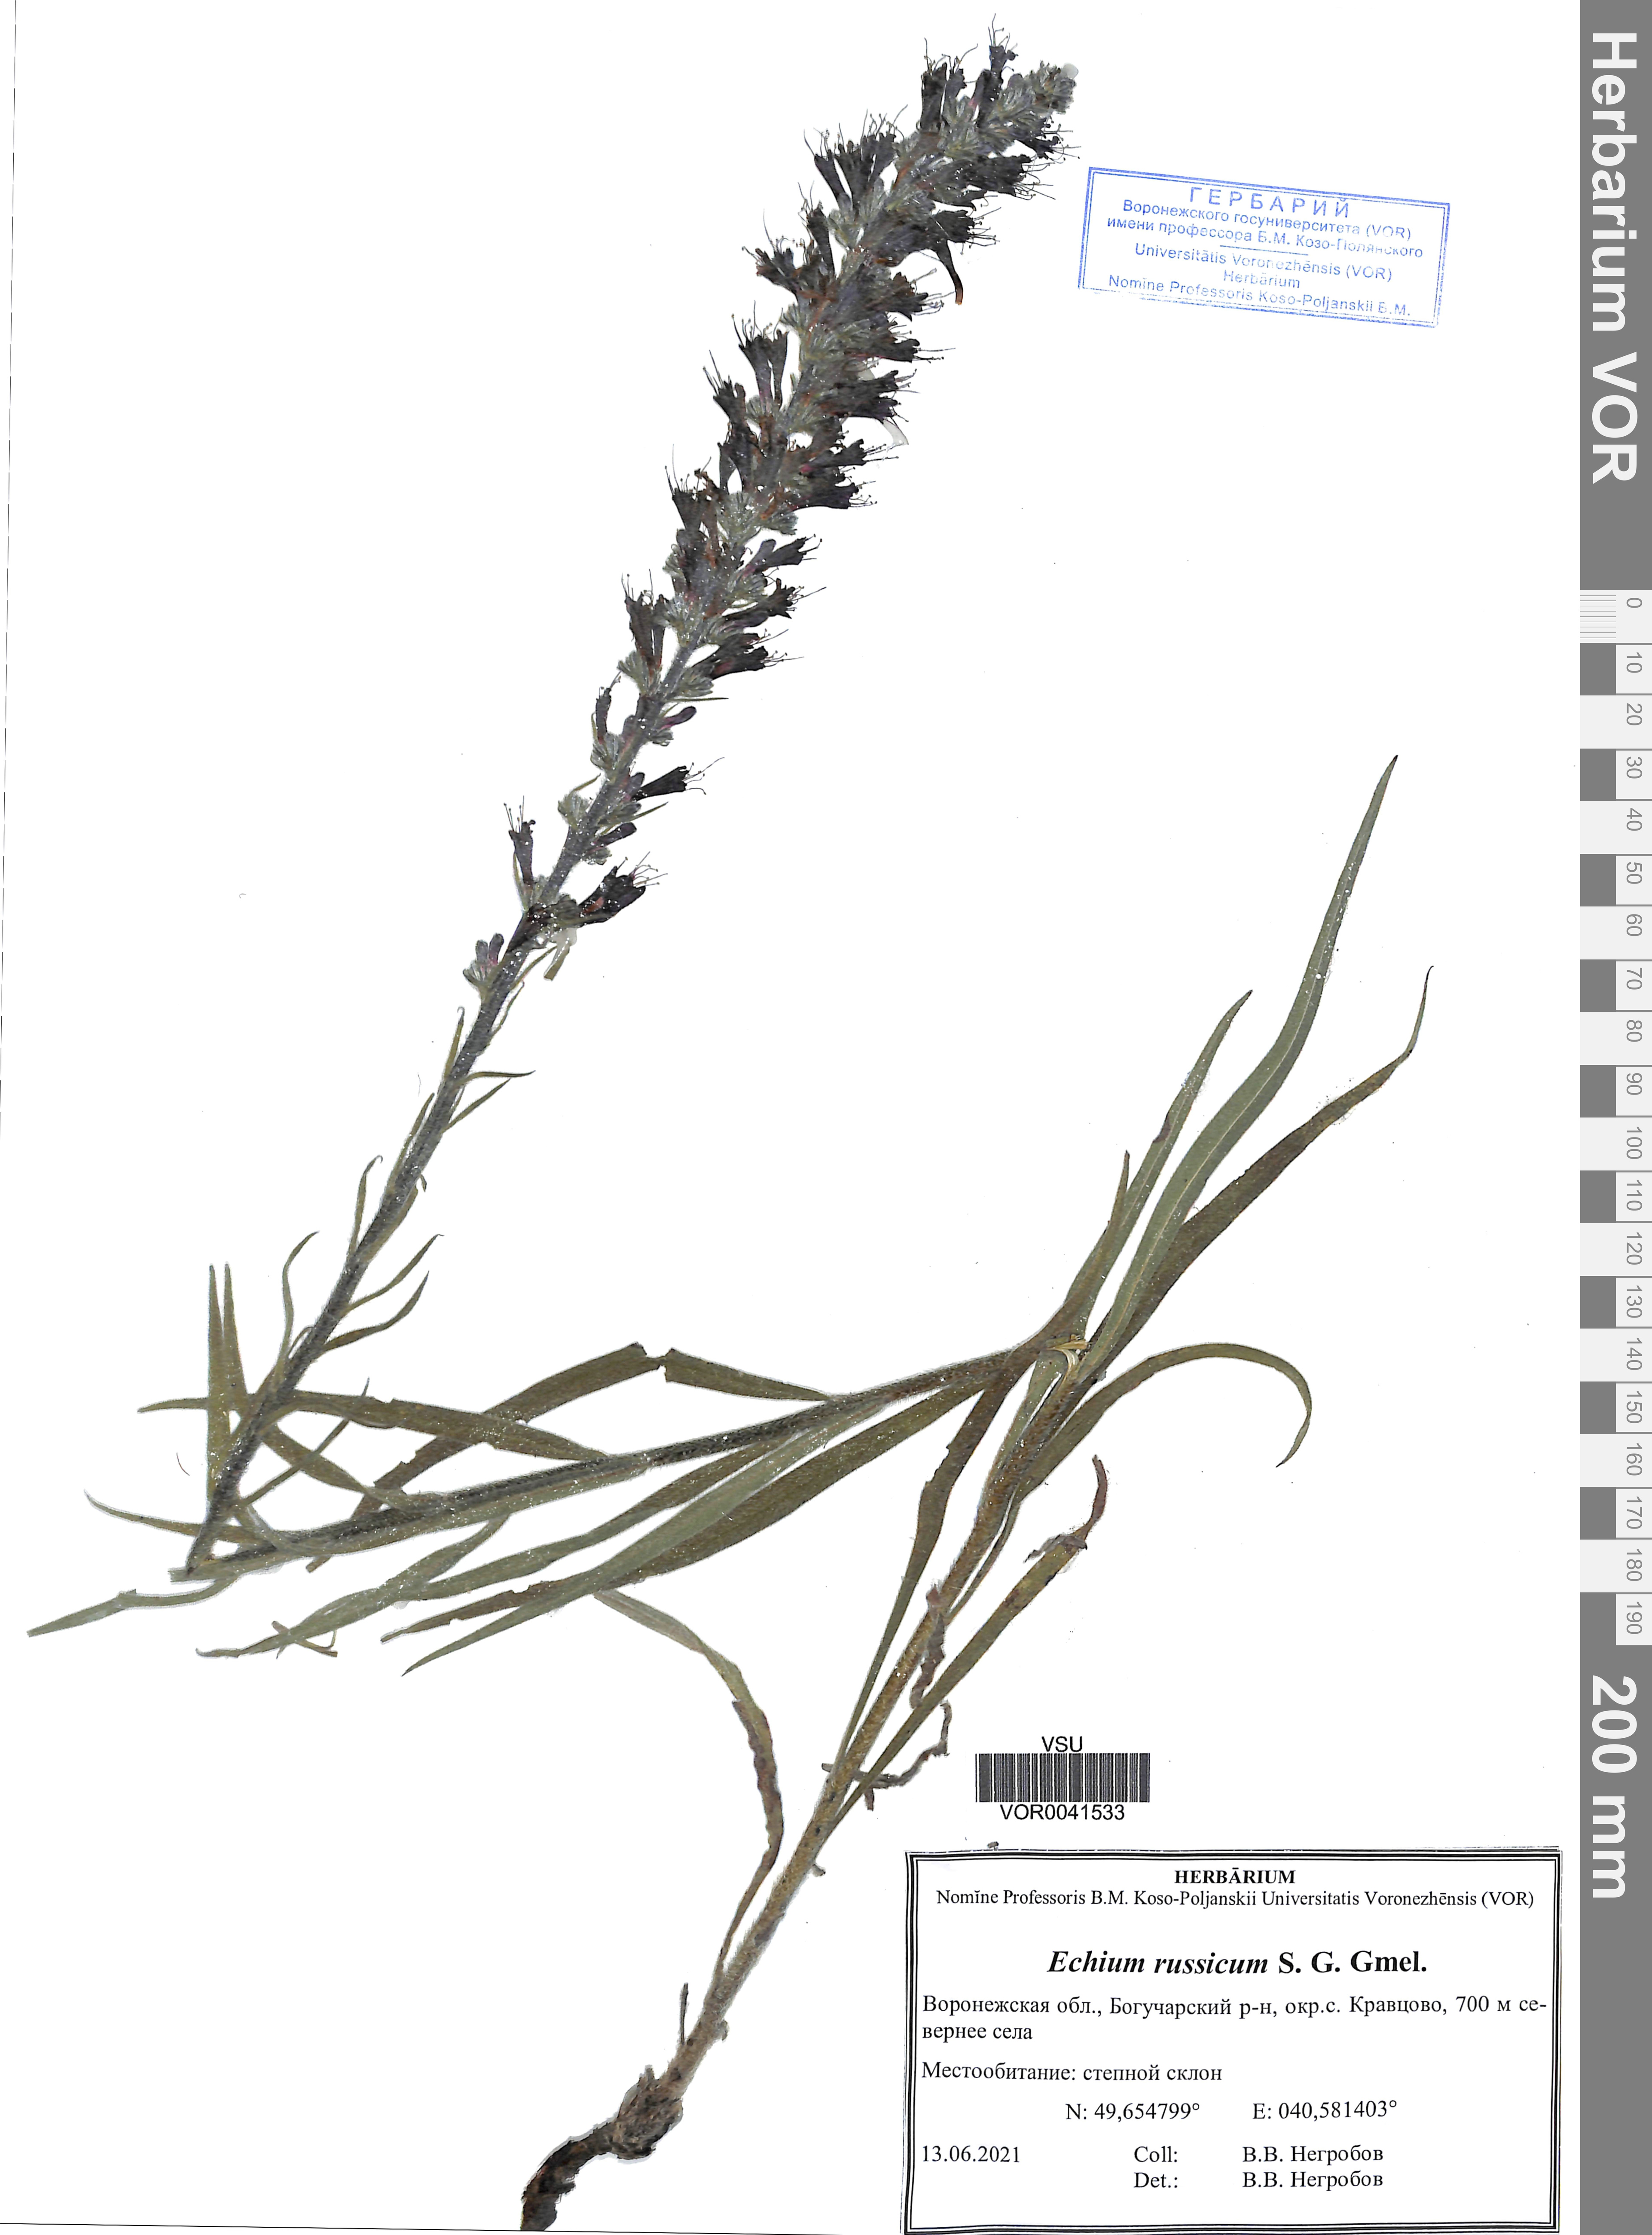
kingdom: Plantae
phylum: Tracheophyta
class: Magnoliopsida
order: Boraginales
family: Boraginaceae
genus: Echium
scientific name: Echium russicum
